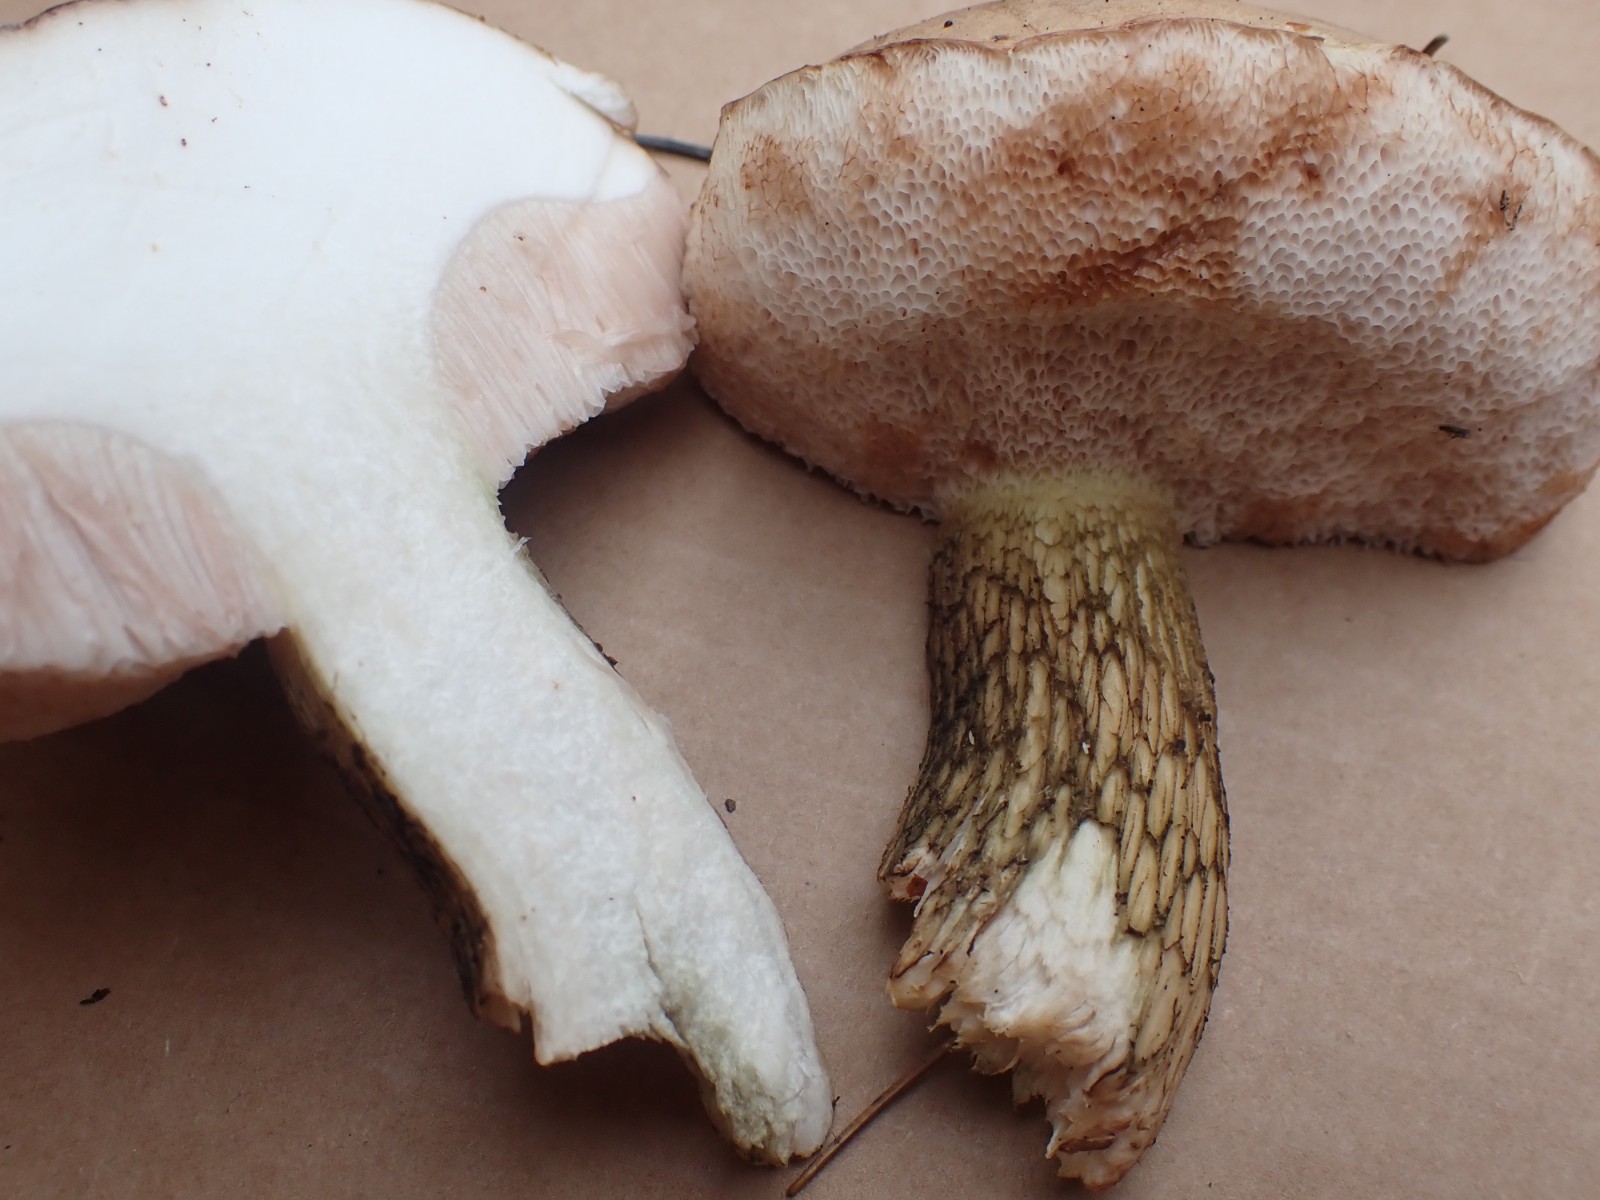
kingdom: Fungi
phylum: Basidiomycota
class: Agaricomycetes
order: Boletales
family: Boletaceae
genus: Tylopilus
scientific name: Tylopilus felleus
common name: galderørhat
